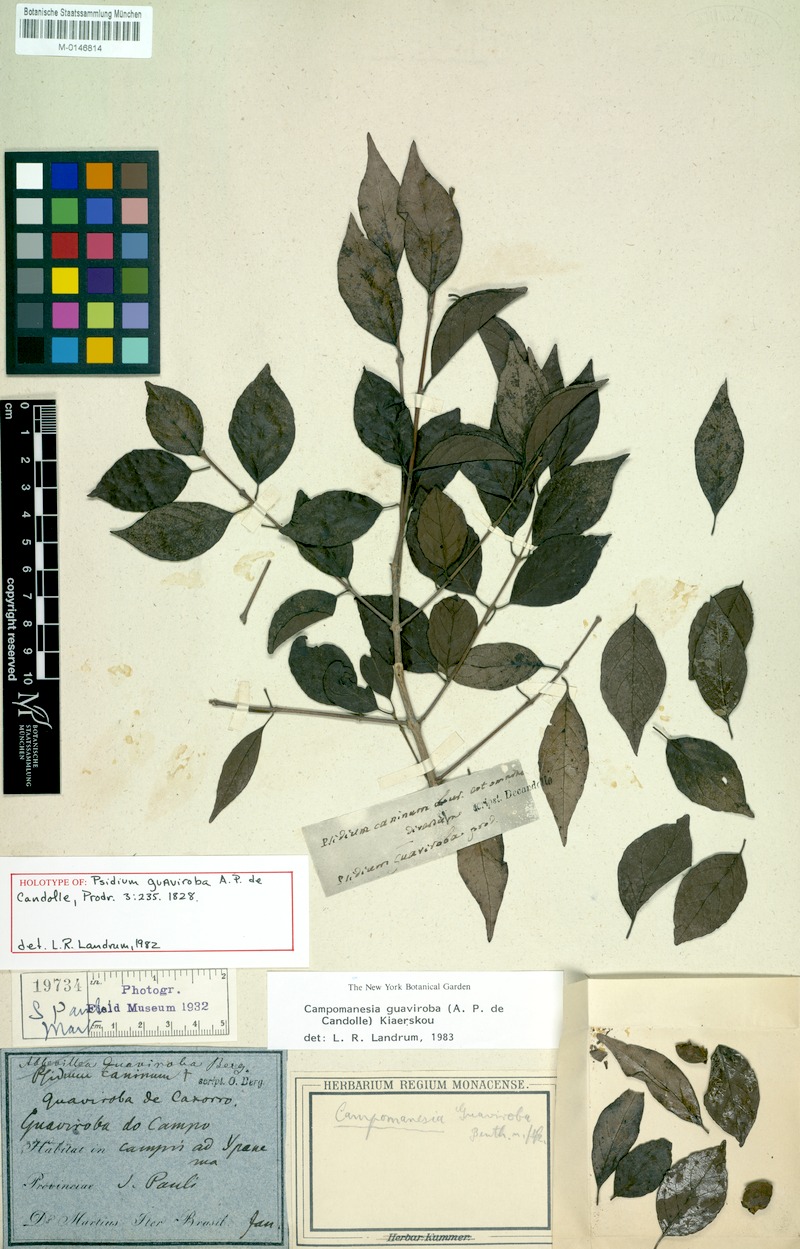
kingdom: Plantae
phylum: Tracheophyta
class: Magnoliopsida
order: Myrtales
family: Myrtaceae
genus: Campomanesia
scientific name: Campomanesia guaviroba
